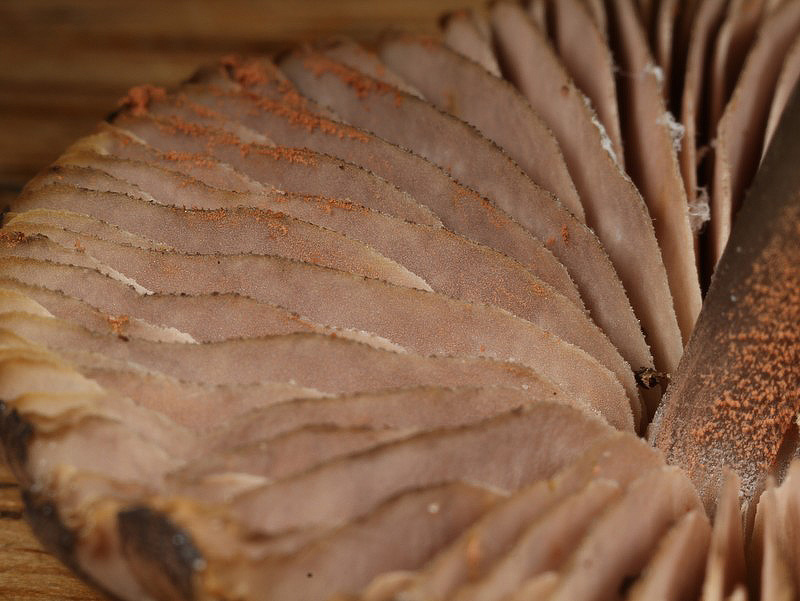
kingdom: Fungi
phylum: Basidiomycota
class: Agaricomycetes
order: Agaricales
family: Entolomataceae
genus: Entoloma
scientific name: Entoloma erhardii
